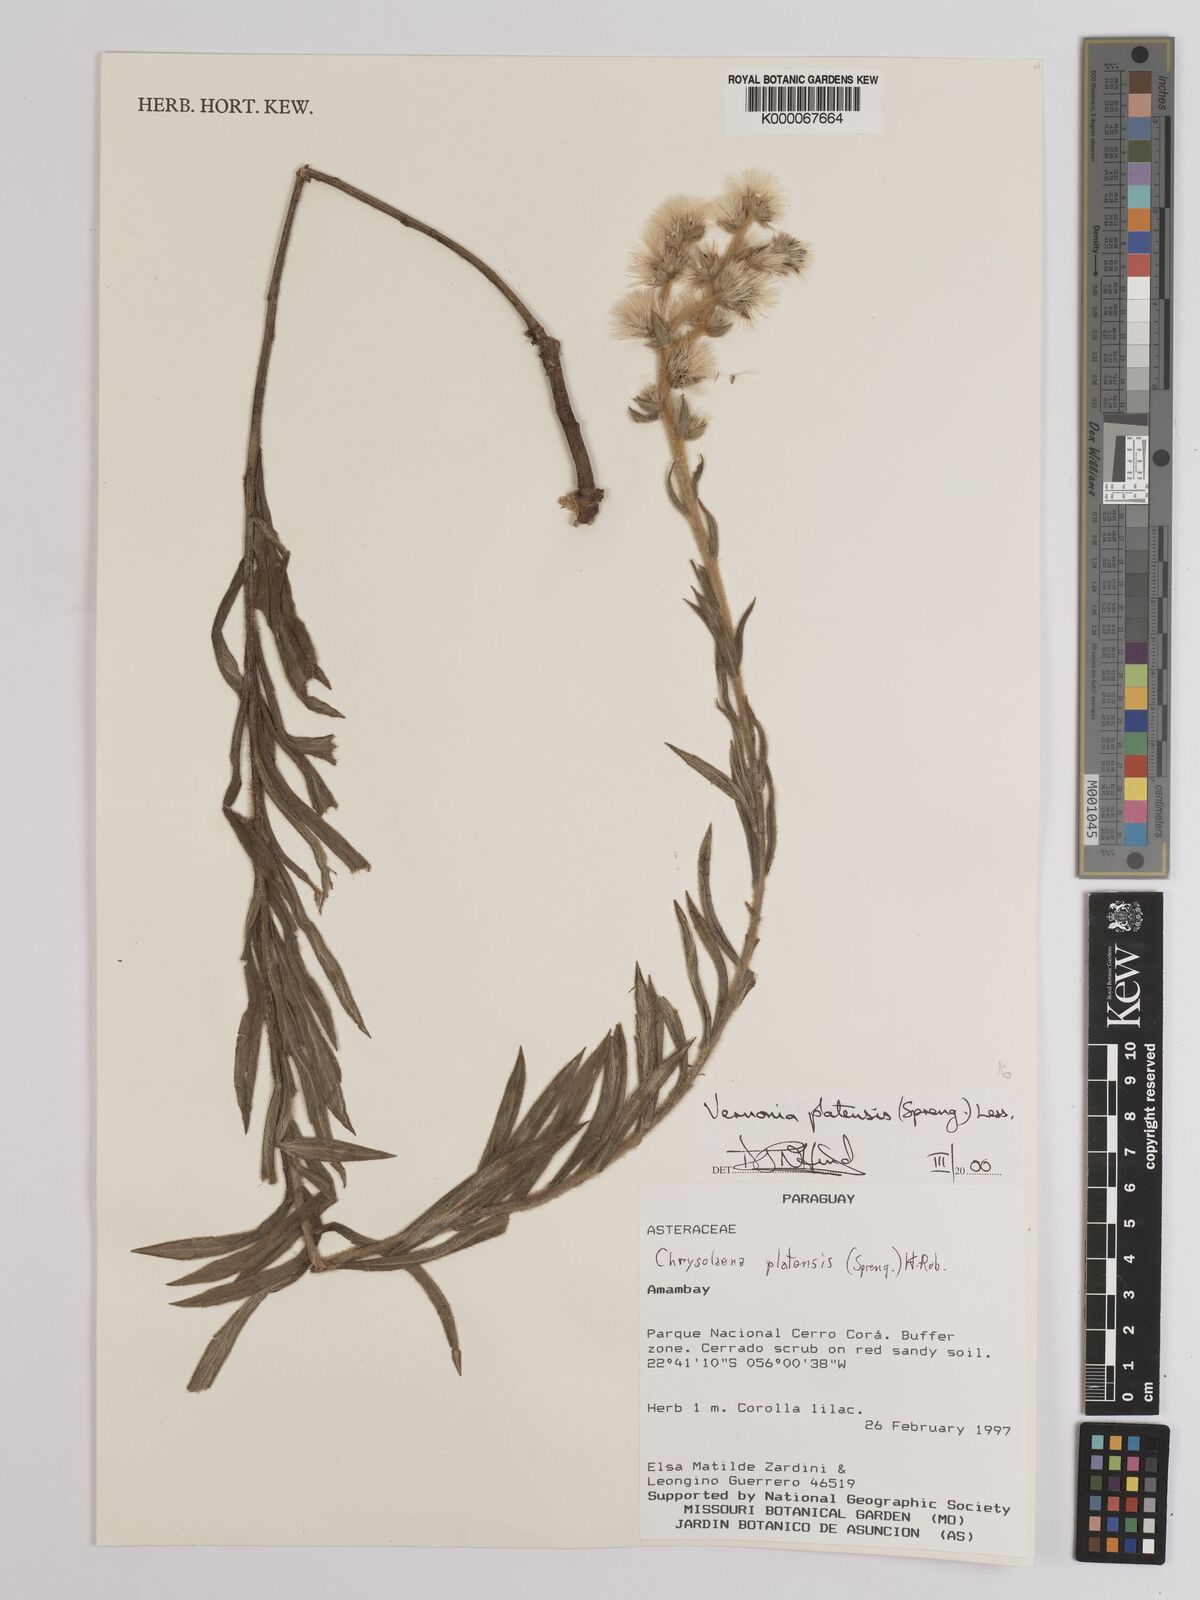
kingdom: Plantae
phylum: Tracheophyta
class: Magnoliopsida
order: Asterales
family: Asteraceae
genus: Chrysolaena
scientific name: Chrysolaena platensis
